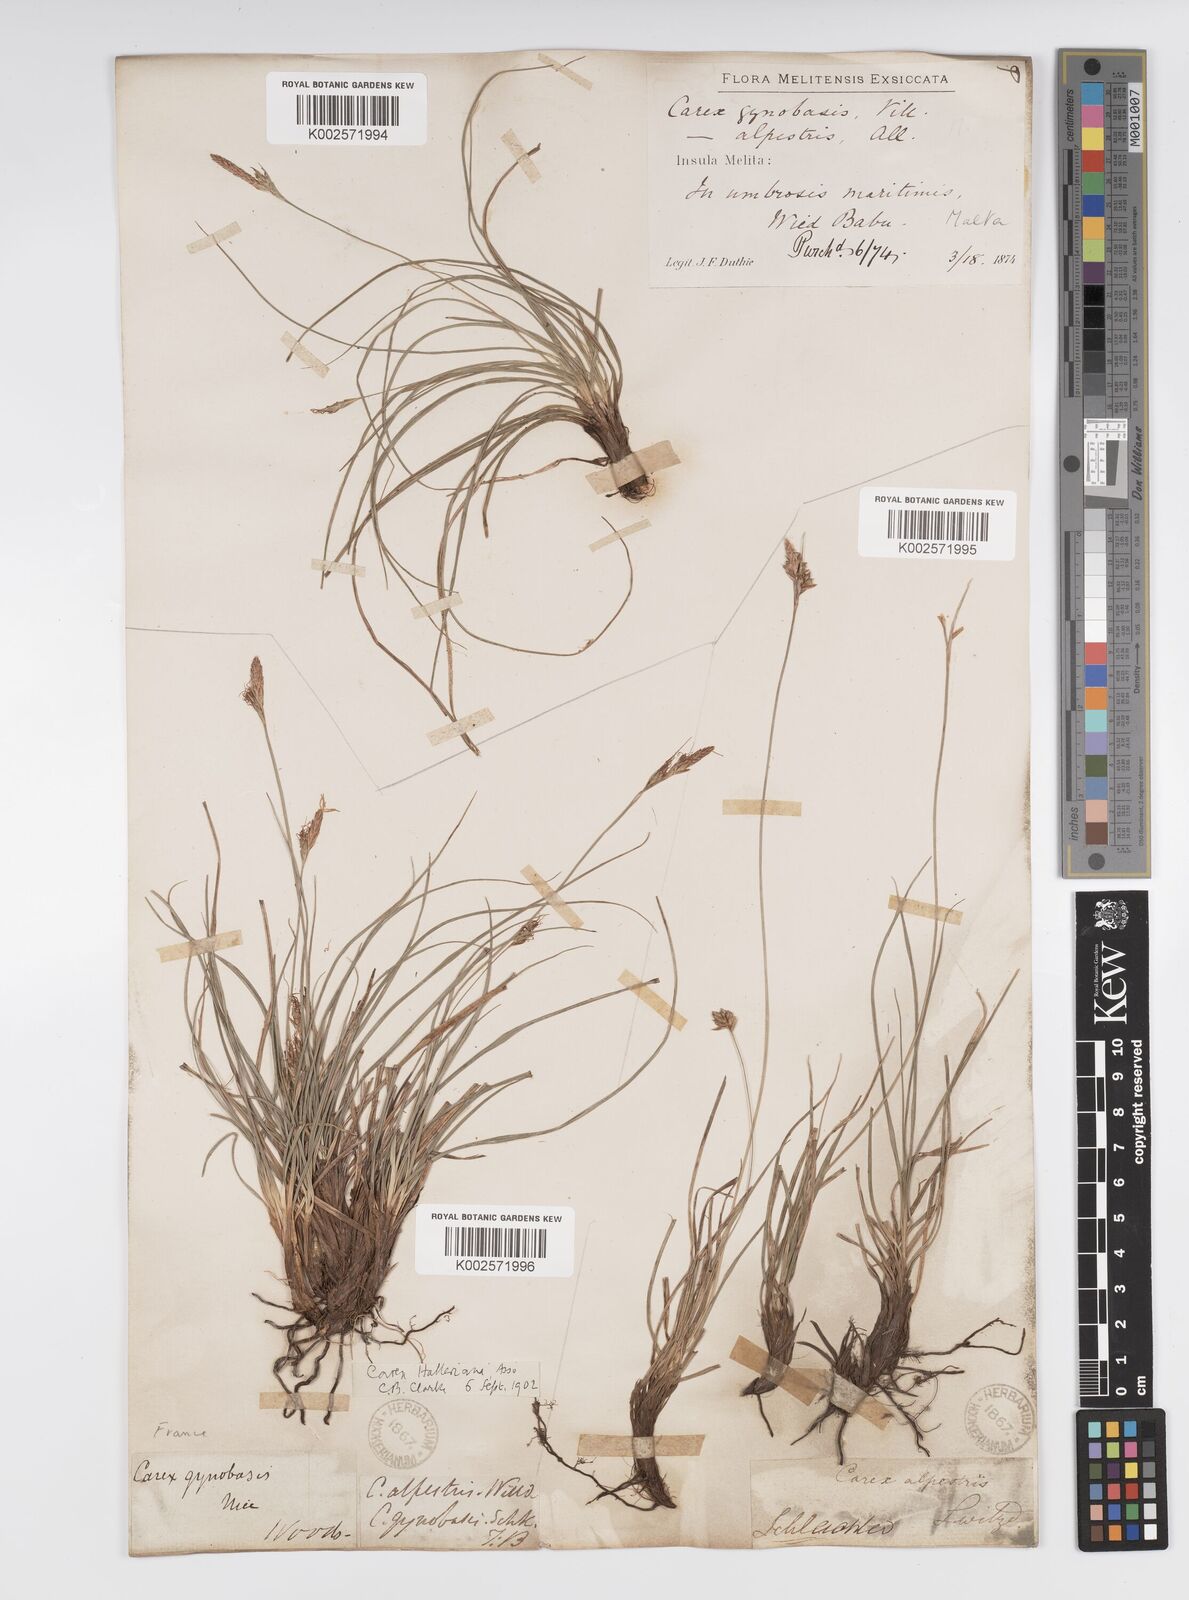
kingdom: Plantae
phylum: Tracheophyta
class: Liliopsida
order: Poales
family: Cyperaceae
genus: Carex
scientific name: Carex halleriana
